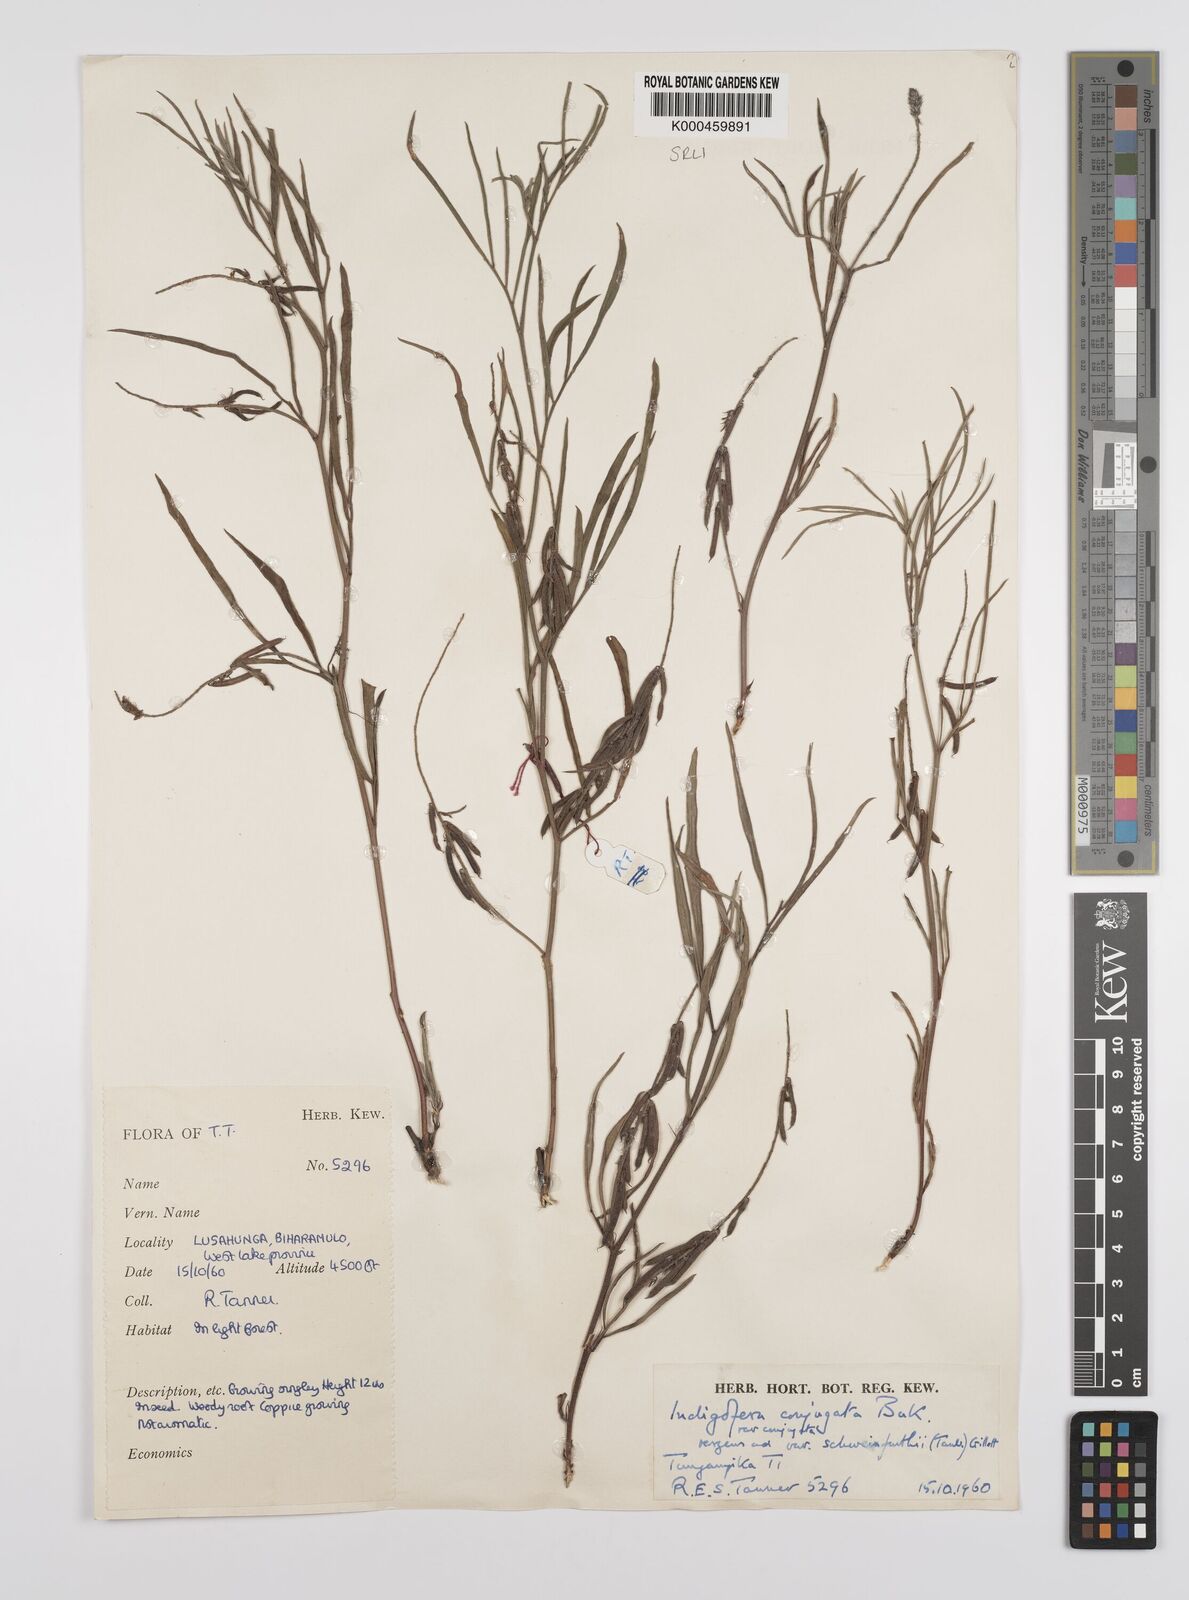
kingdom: Plantae
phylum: Tracheophyta
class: Magnoliopsida
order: Fabales
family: Fabaceae
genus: Indigofera
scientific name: Indigofera conjugata
